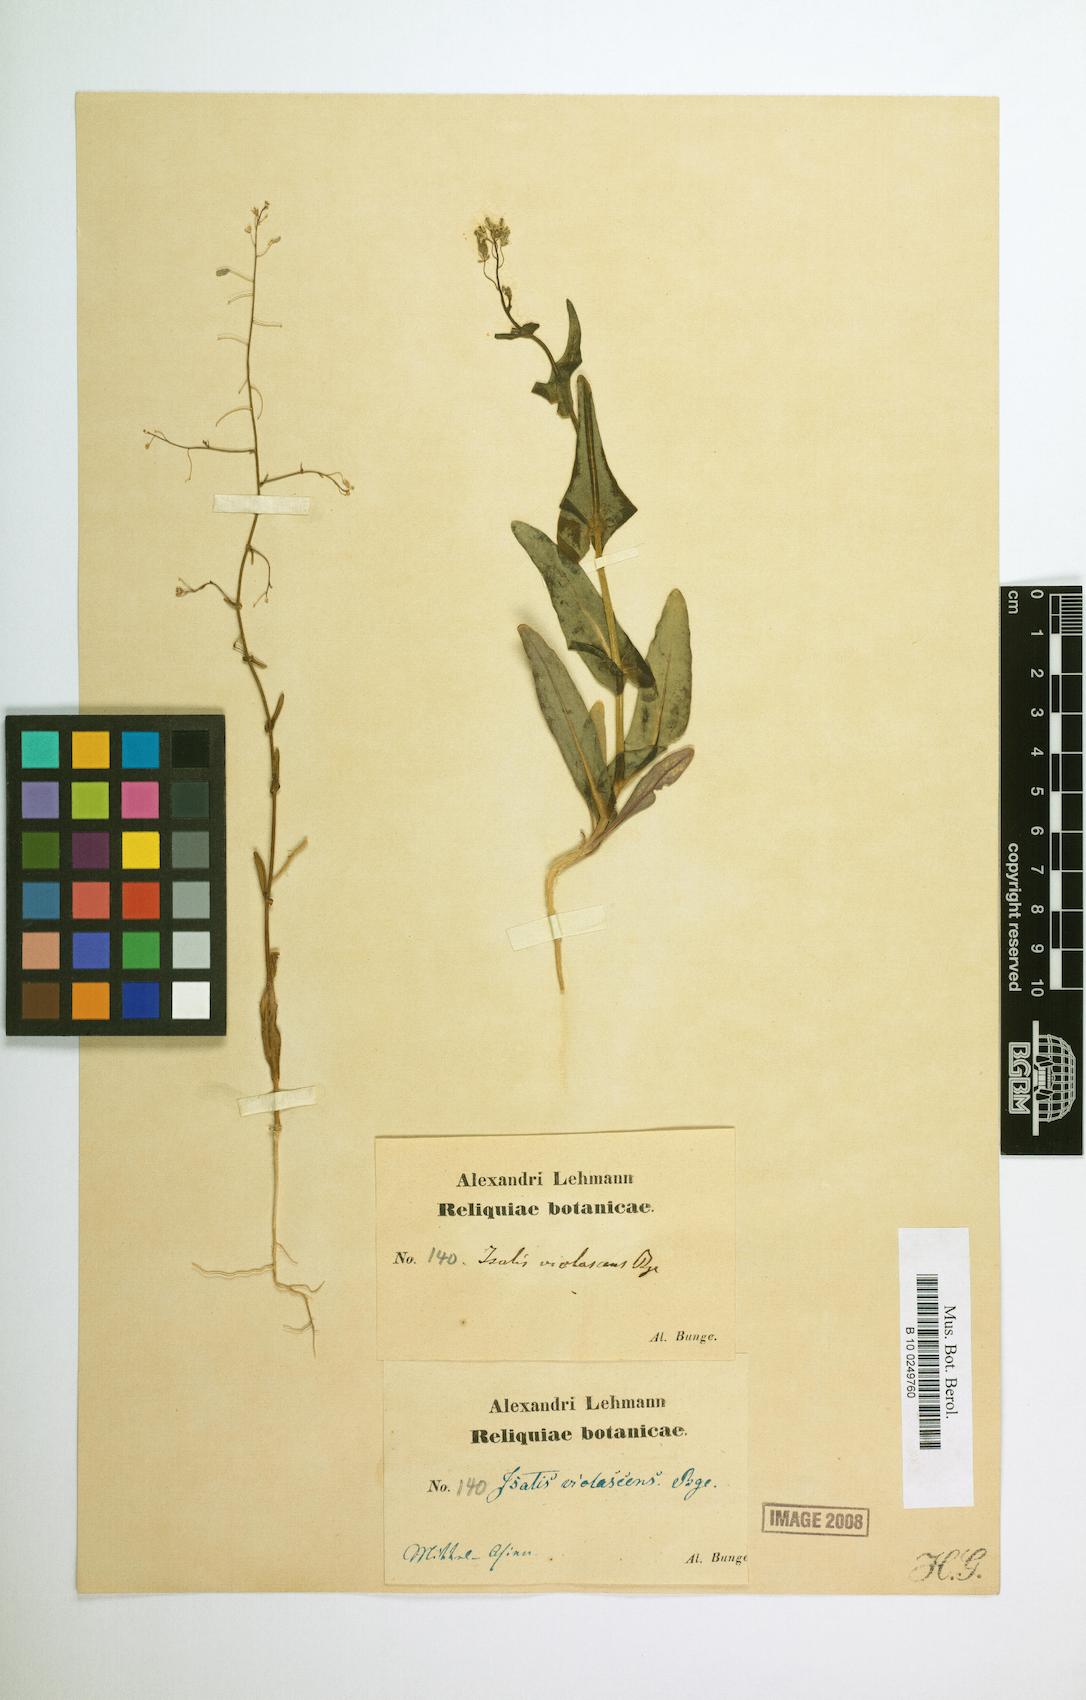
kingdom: Plantae
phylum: Tracheophyta
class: Magnoliopsida
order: Brassicales
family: Brassicaceae
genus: Isatis
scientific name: Isatis violascens
